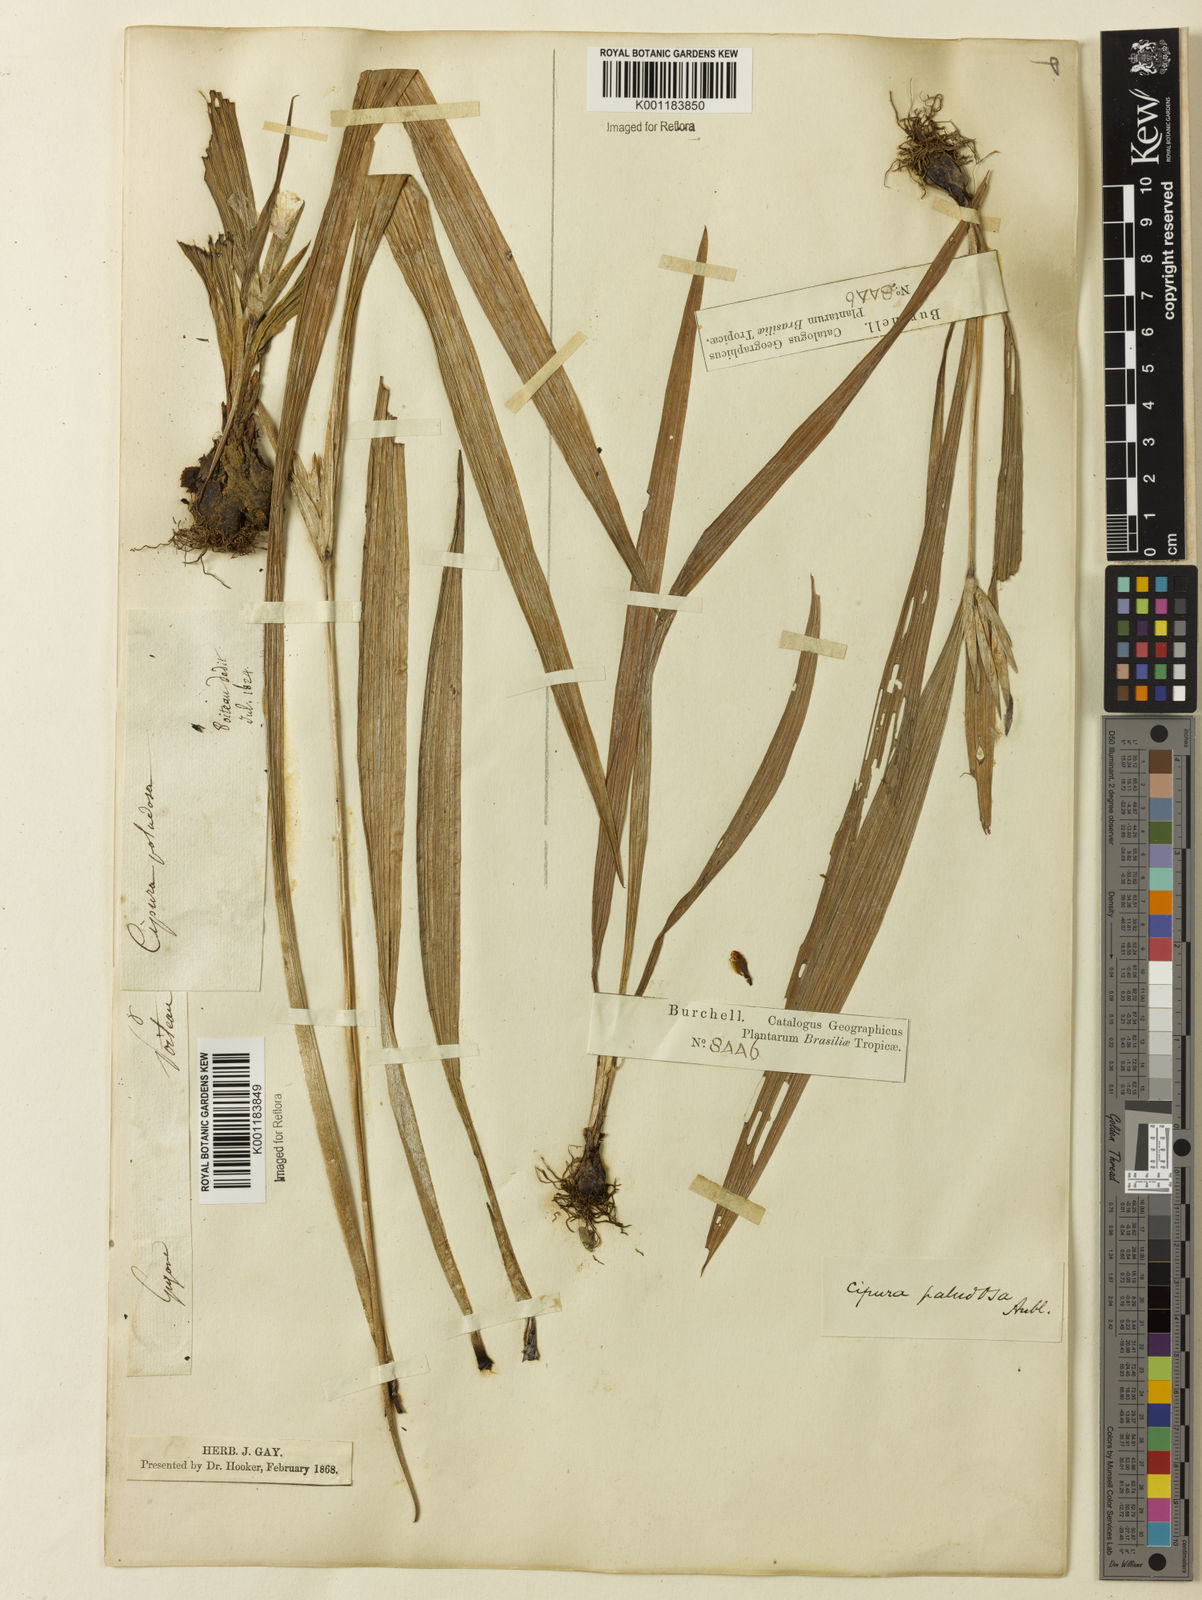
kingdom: Plantae
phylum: Tracheophyta
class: Liliopsida
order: Asparagales
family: Iridaceae
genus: Cipura
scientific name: Cipura paludosa
